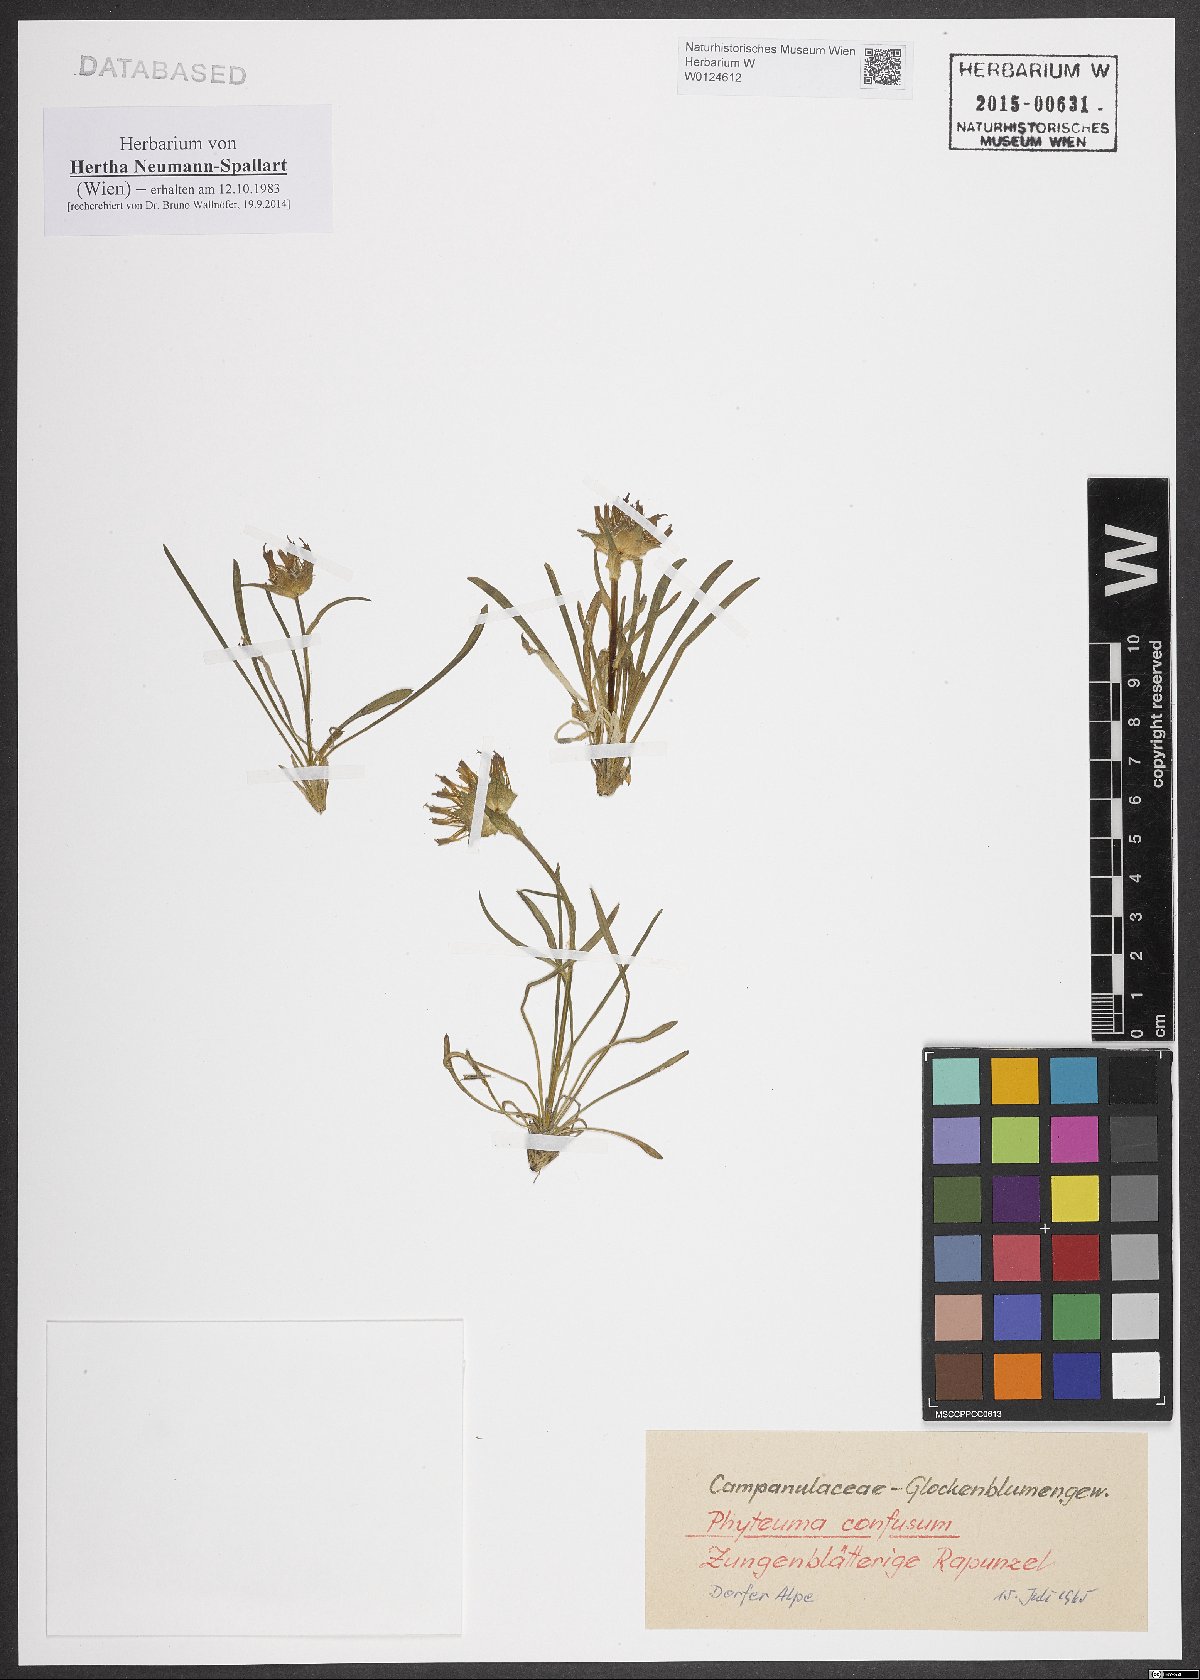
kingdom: Plantae
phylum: Tracheophyta
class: Magnoliopsida
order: Asterales
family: Campanulaceae
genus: Phyteuma
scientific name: Phyteuma confusum
